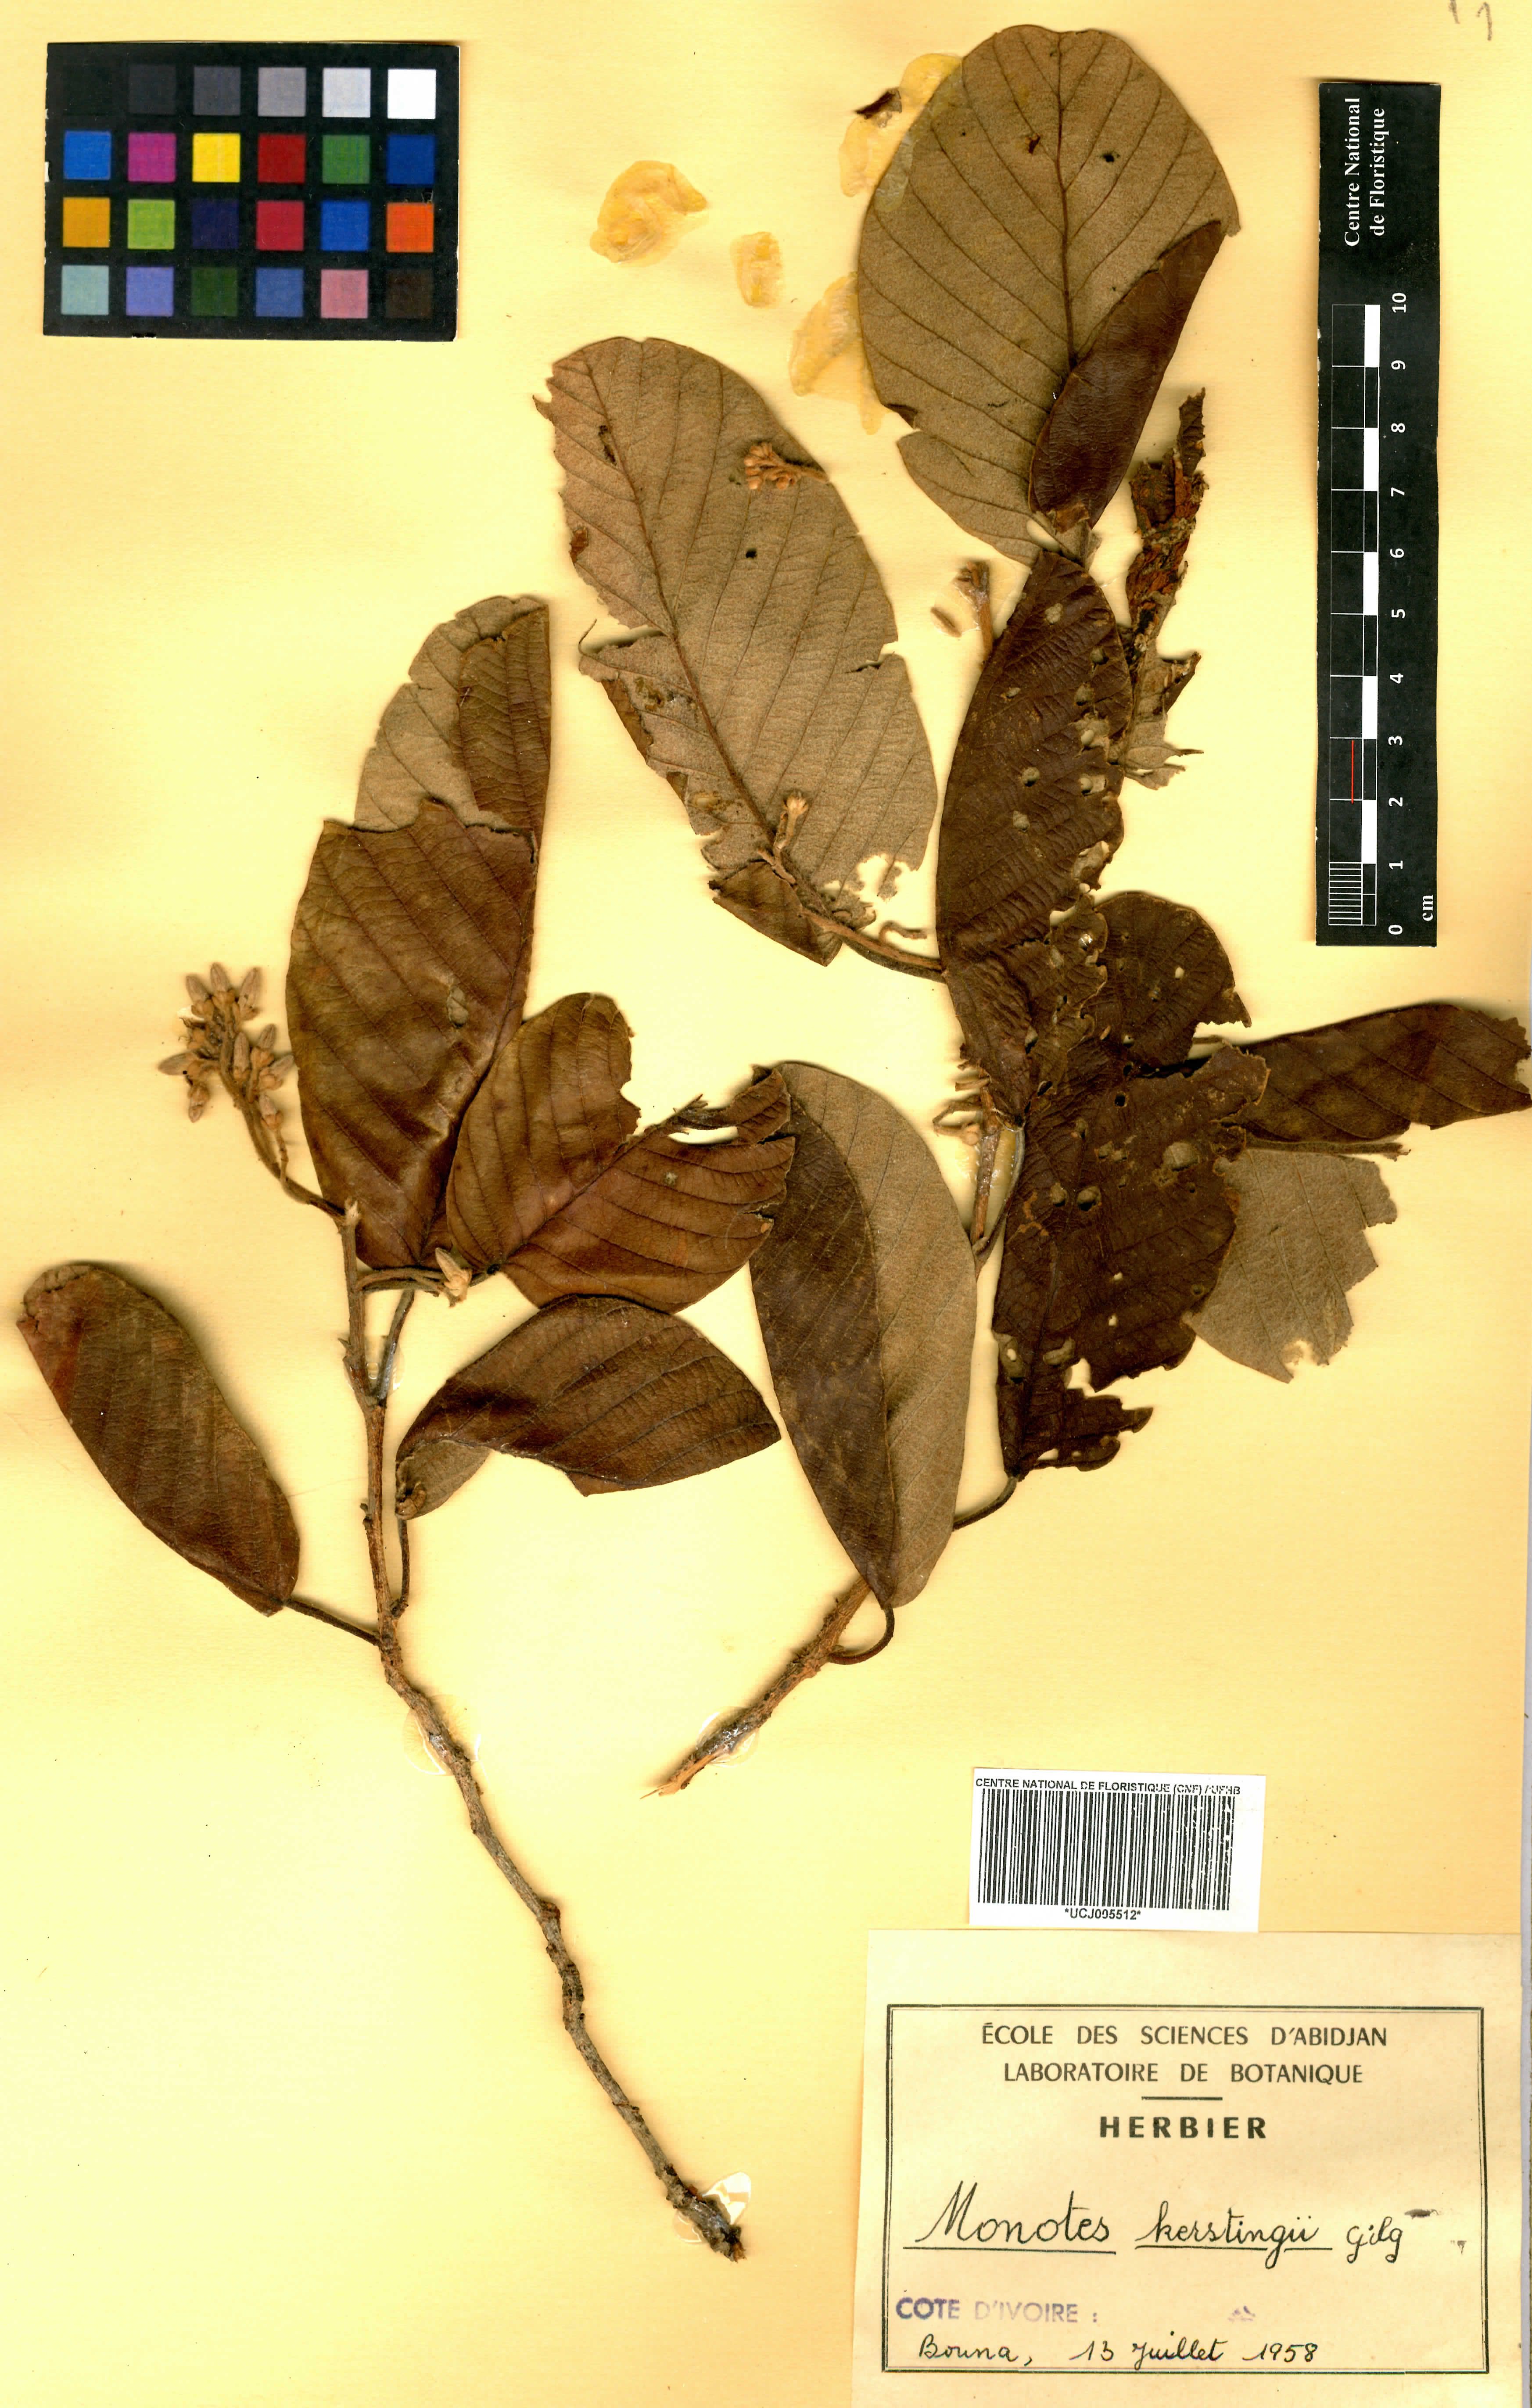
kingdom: Plantae
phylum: Tracheophyta
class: Magnoliopsida
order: Malvales
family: Dipterocarpaceae
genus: Monotes
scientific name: Monotes kerstingii
